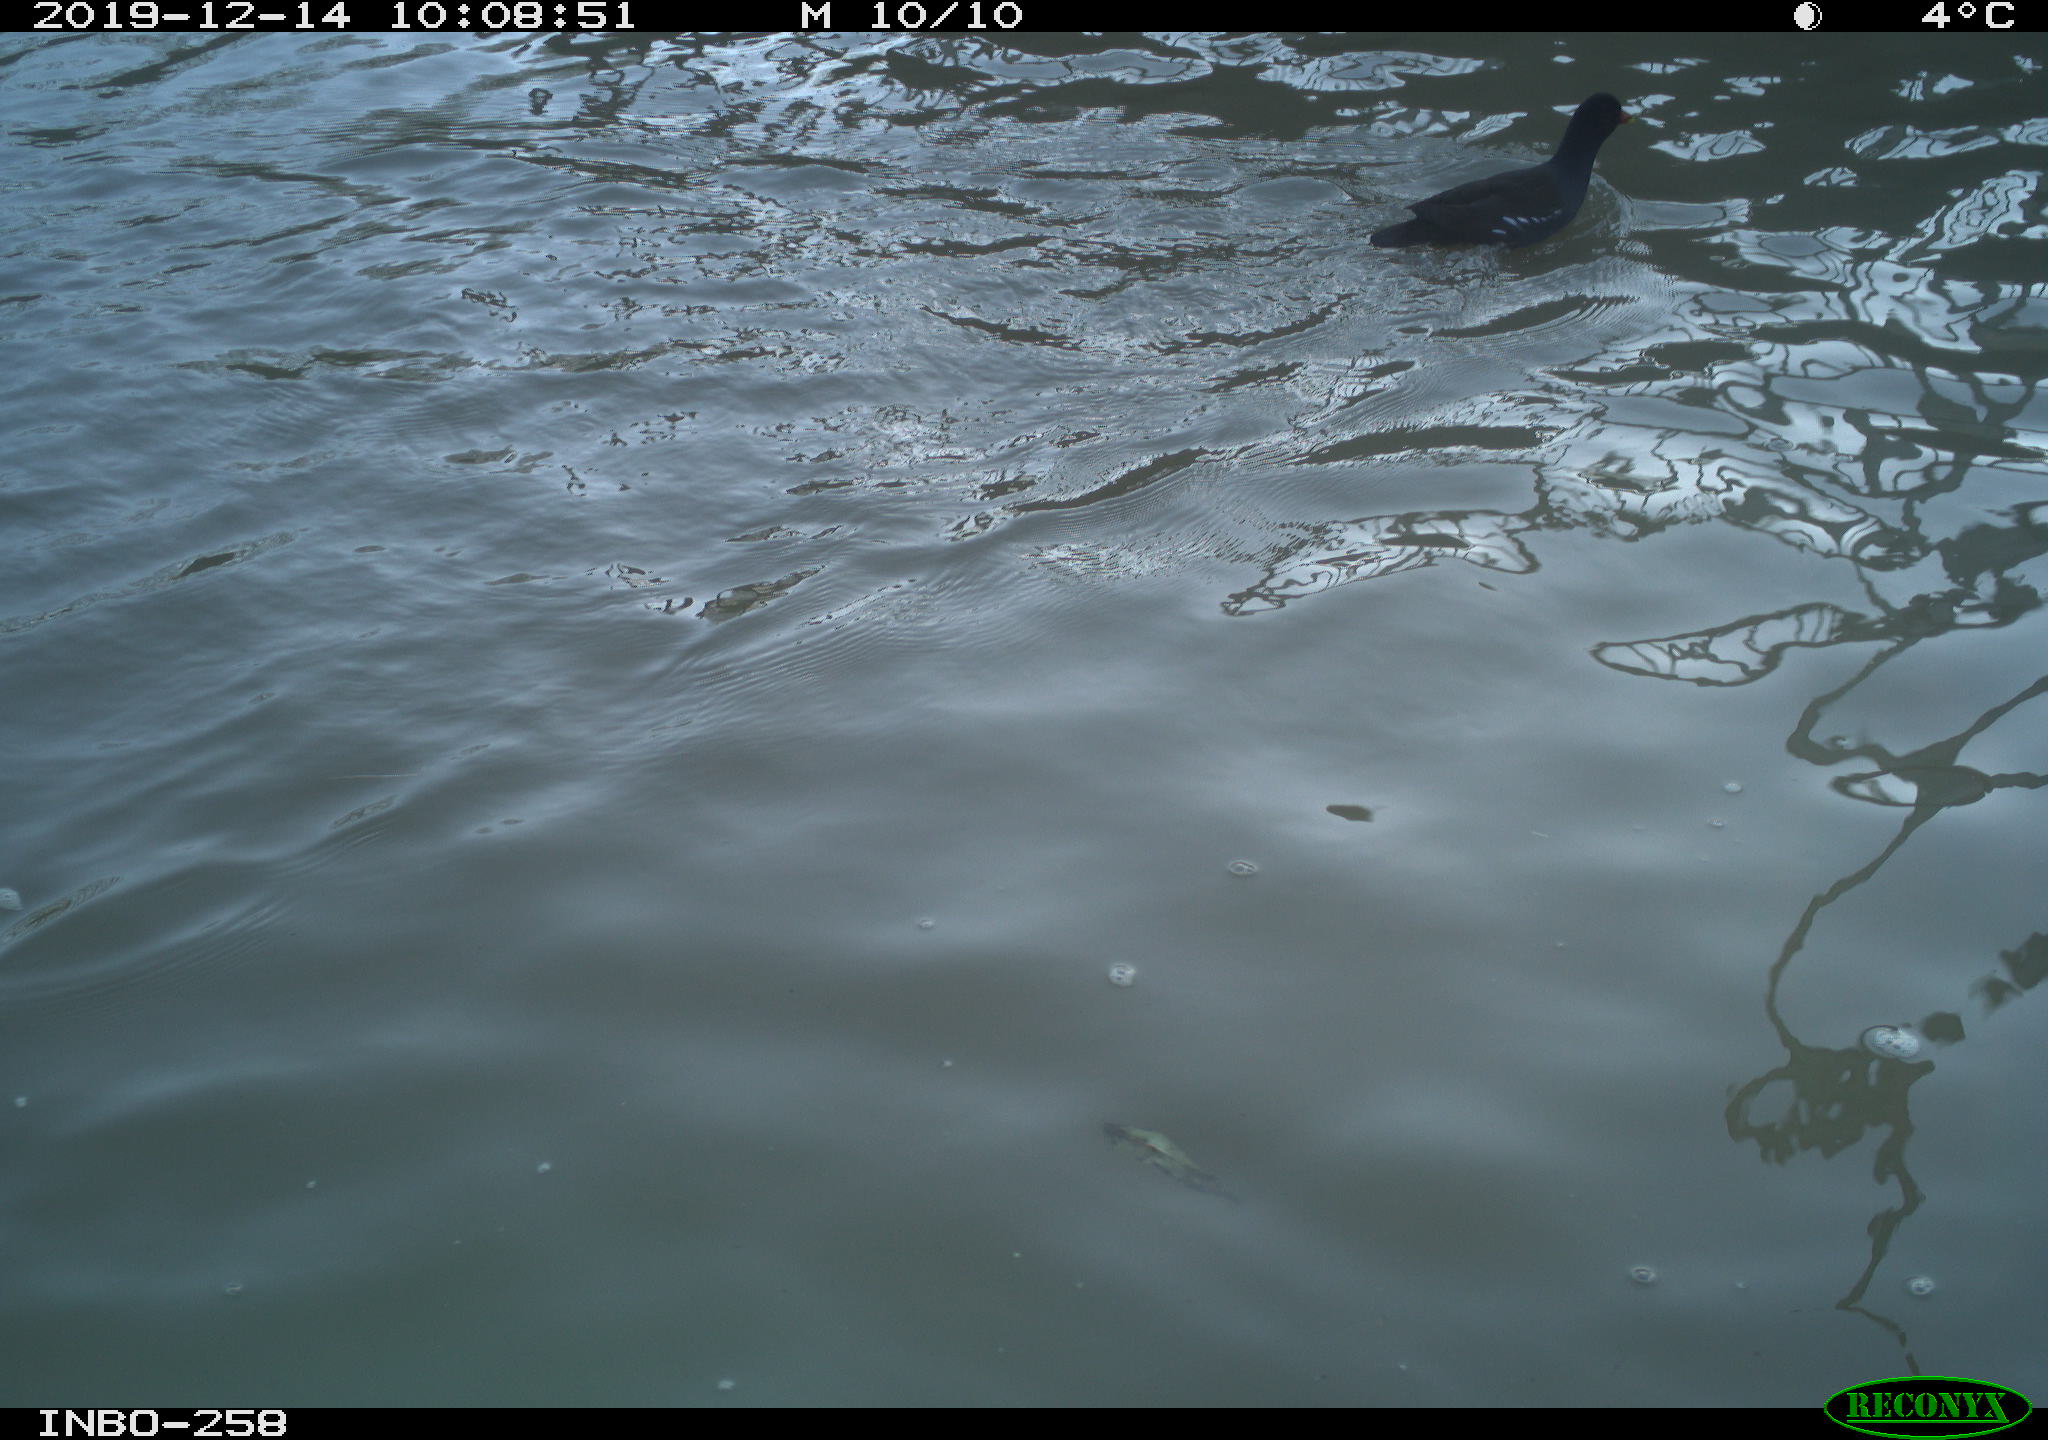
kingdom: Animalia
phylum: Chordata
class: Aves
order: Gruiformes
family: Rallidae
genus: Gallinula
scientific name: Gallinula chloropus
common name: Common moorhen
